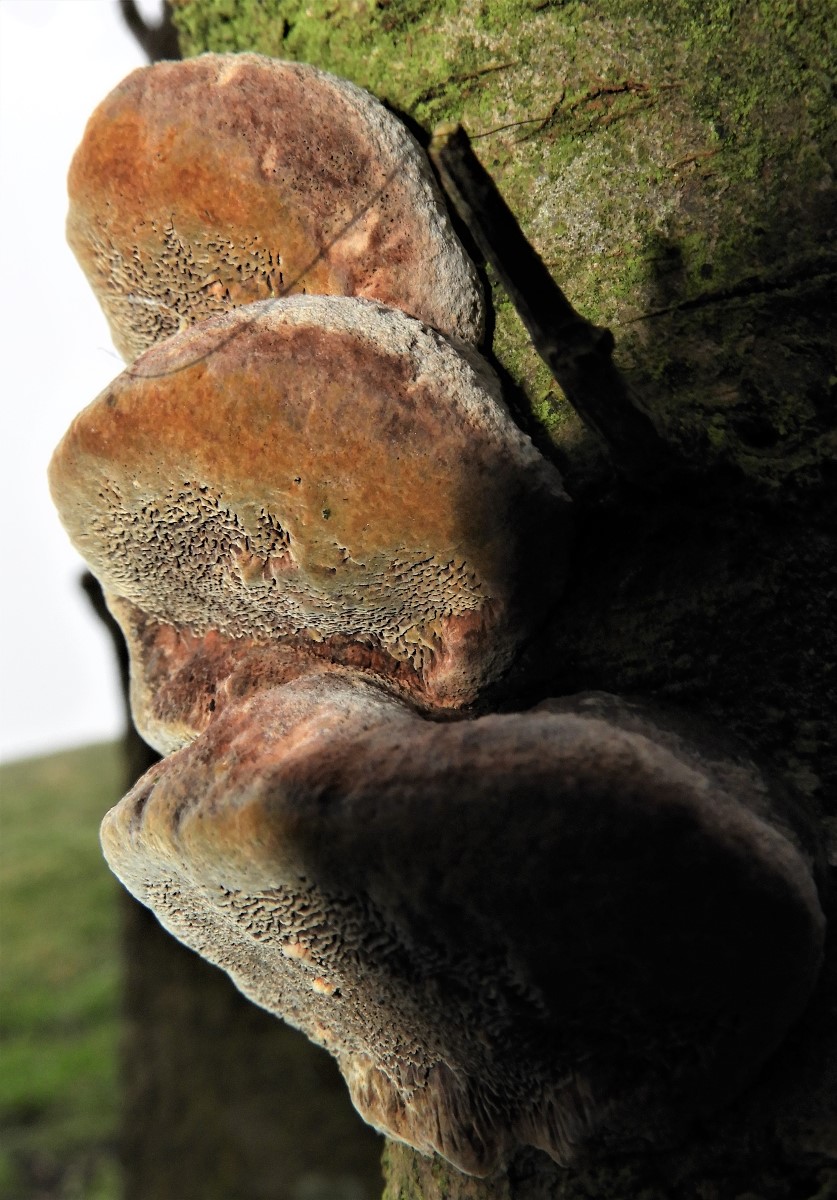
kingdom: Fungi
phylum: Basidiomycota
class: Agaricomycetes
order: Hymenochaetales
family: Hymenochaetaceae
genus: Phellinus
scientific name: Phellinus pomaceus
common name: blomme-ildporesvamp
